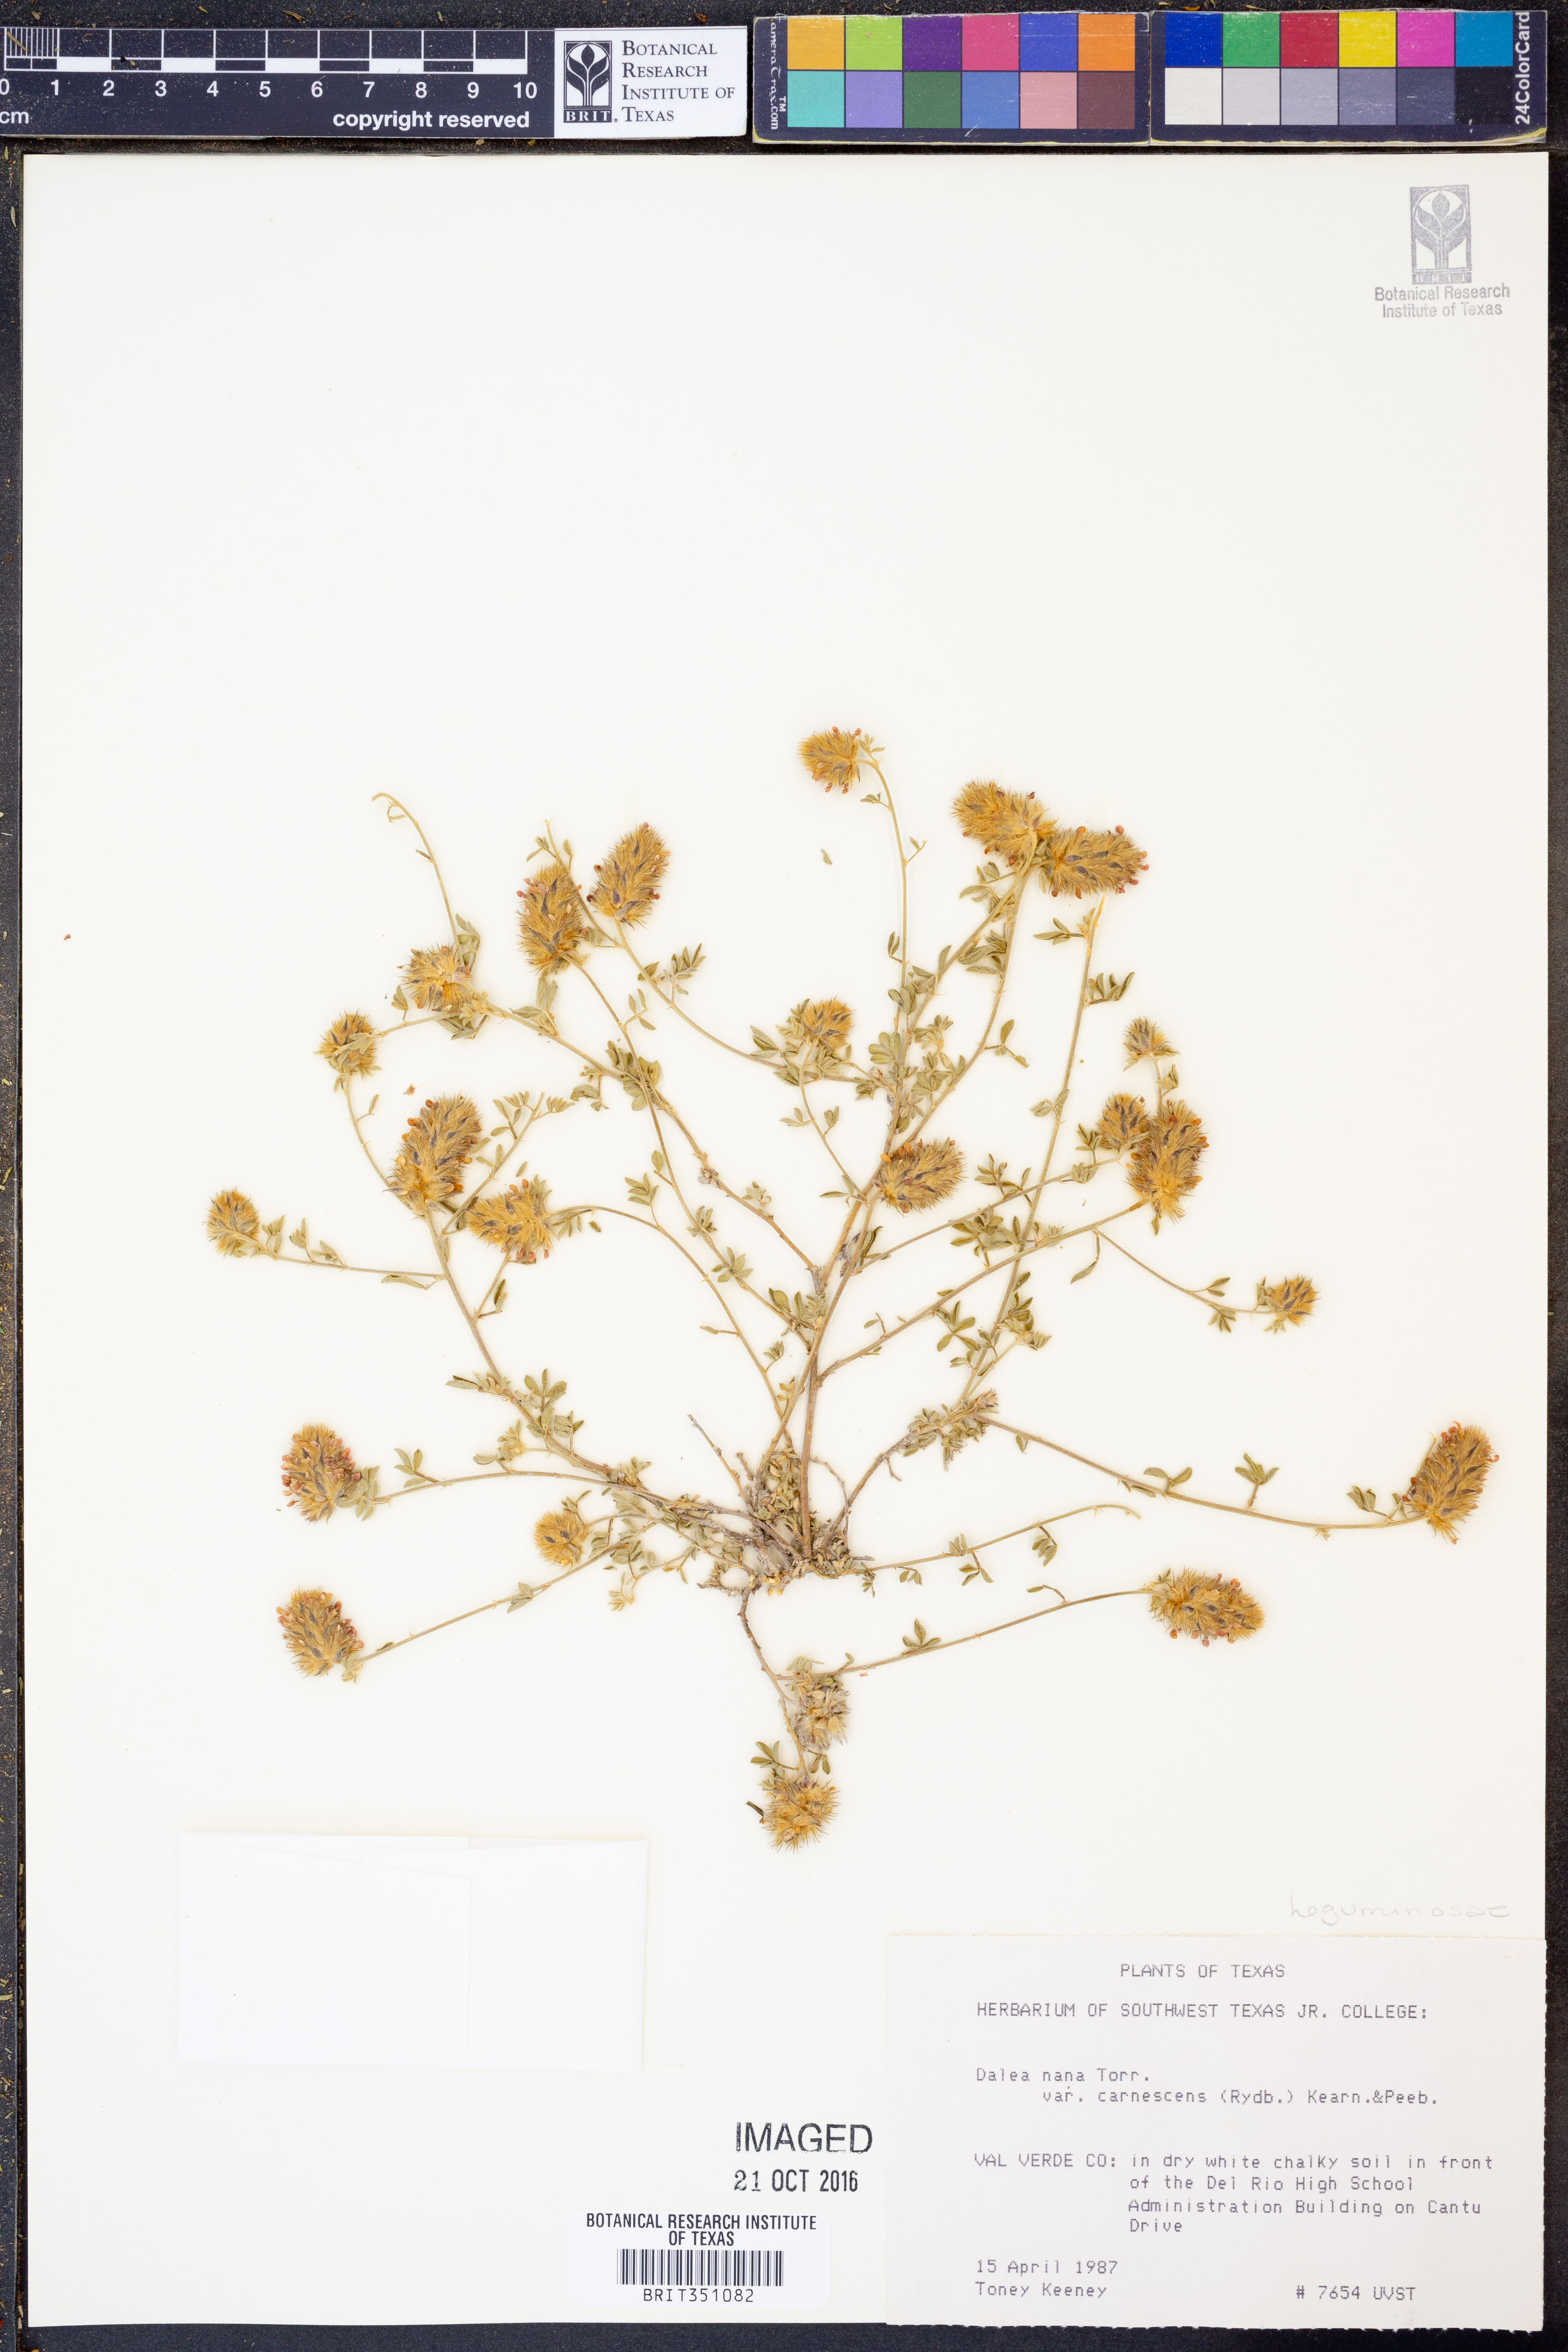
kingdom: Plantae
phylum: Tracheophyta
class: Magnoliopsida
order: Fabales
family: Fabaceae
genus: Dalea
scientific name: Dalea rubescens
